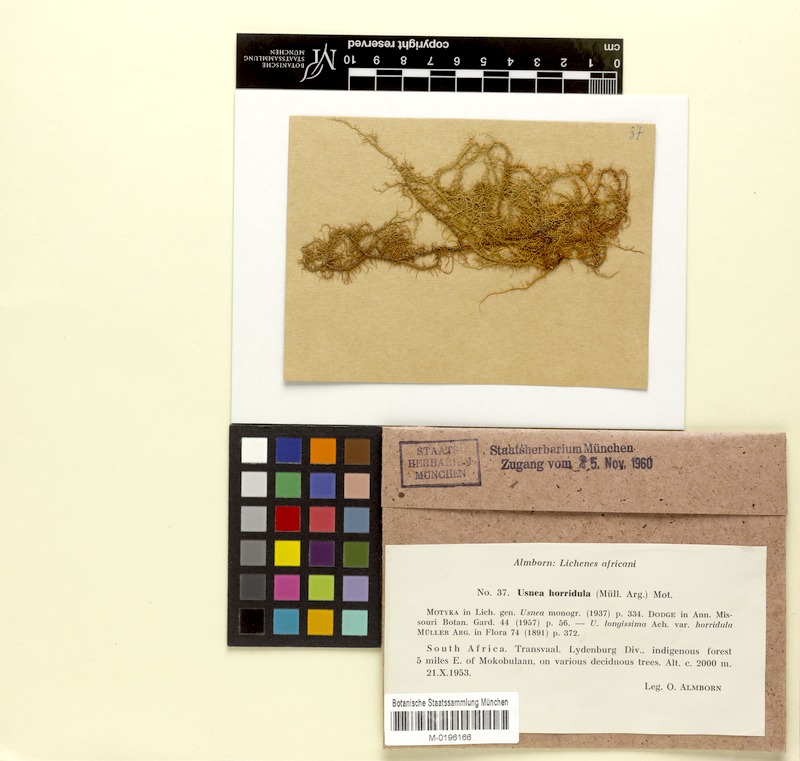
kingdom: Fungi
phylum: Ascomycota
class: Lecanoromycetes
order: Lecanorales
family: Parmeliaceae
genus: Usnea
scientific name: Usnea horridula
